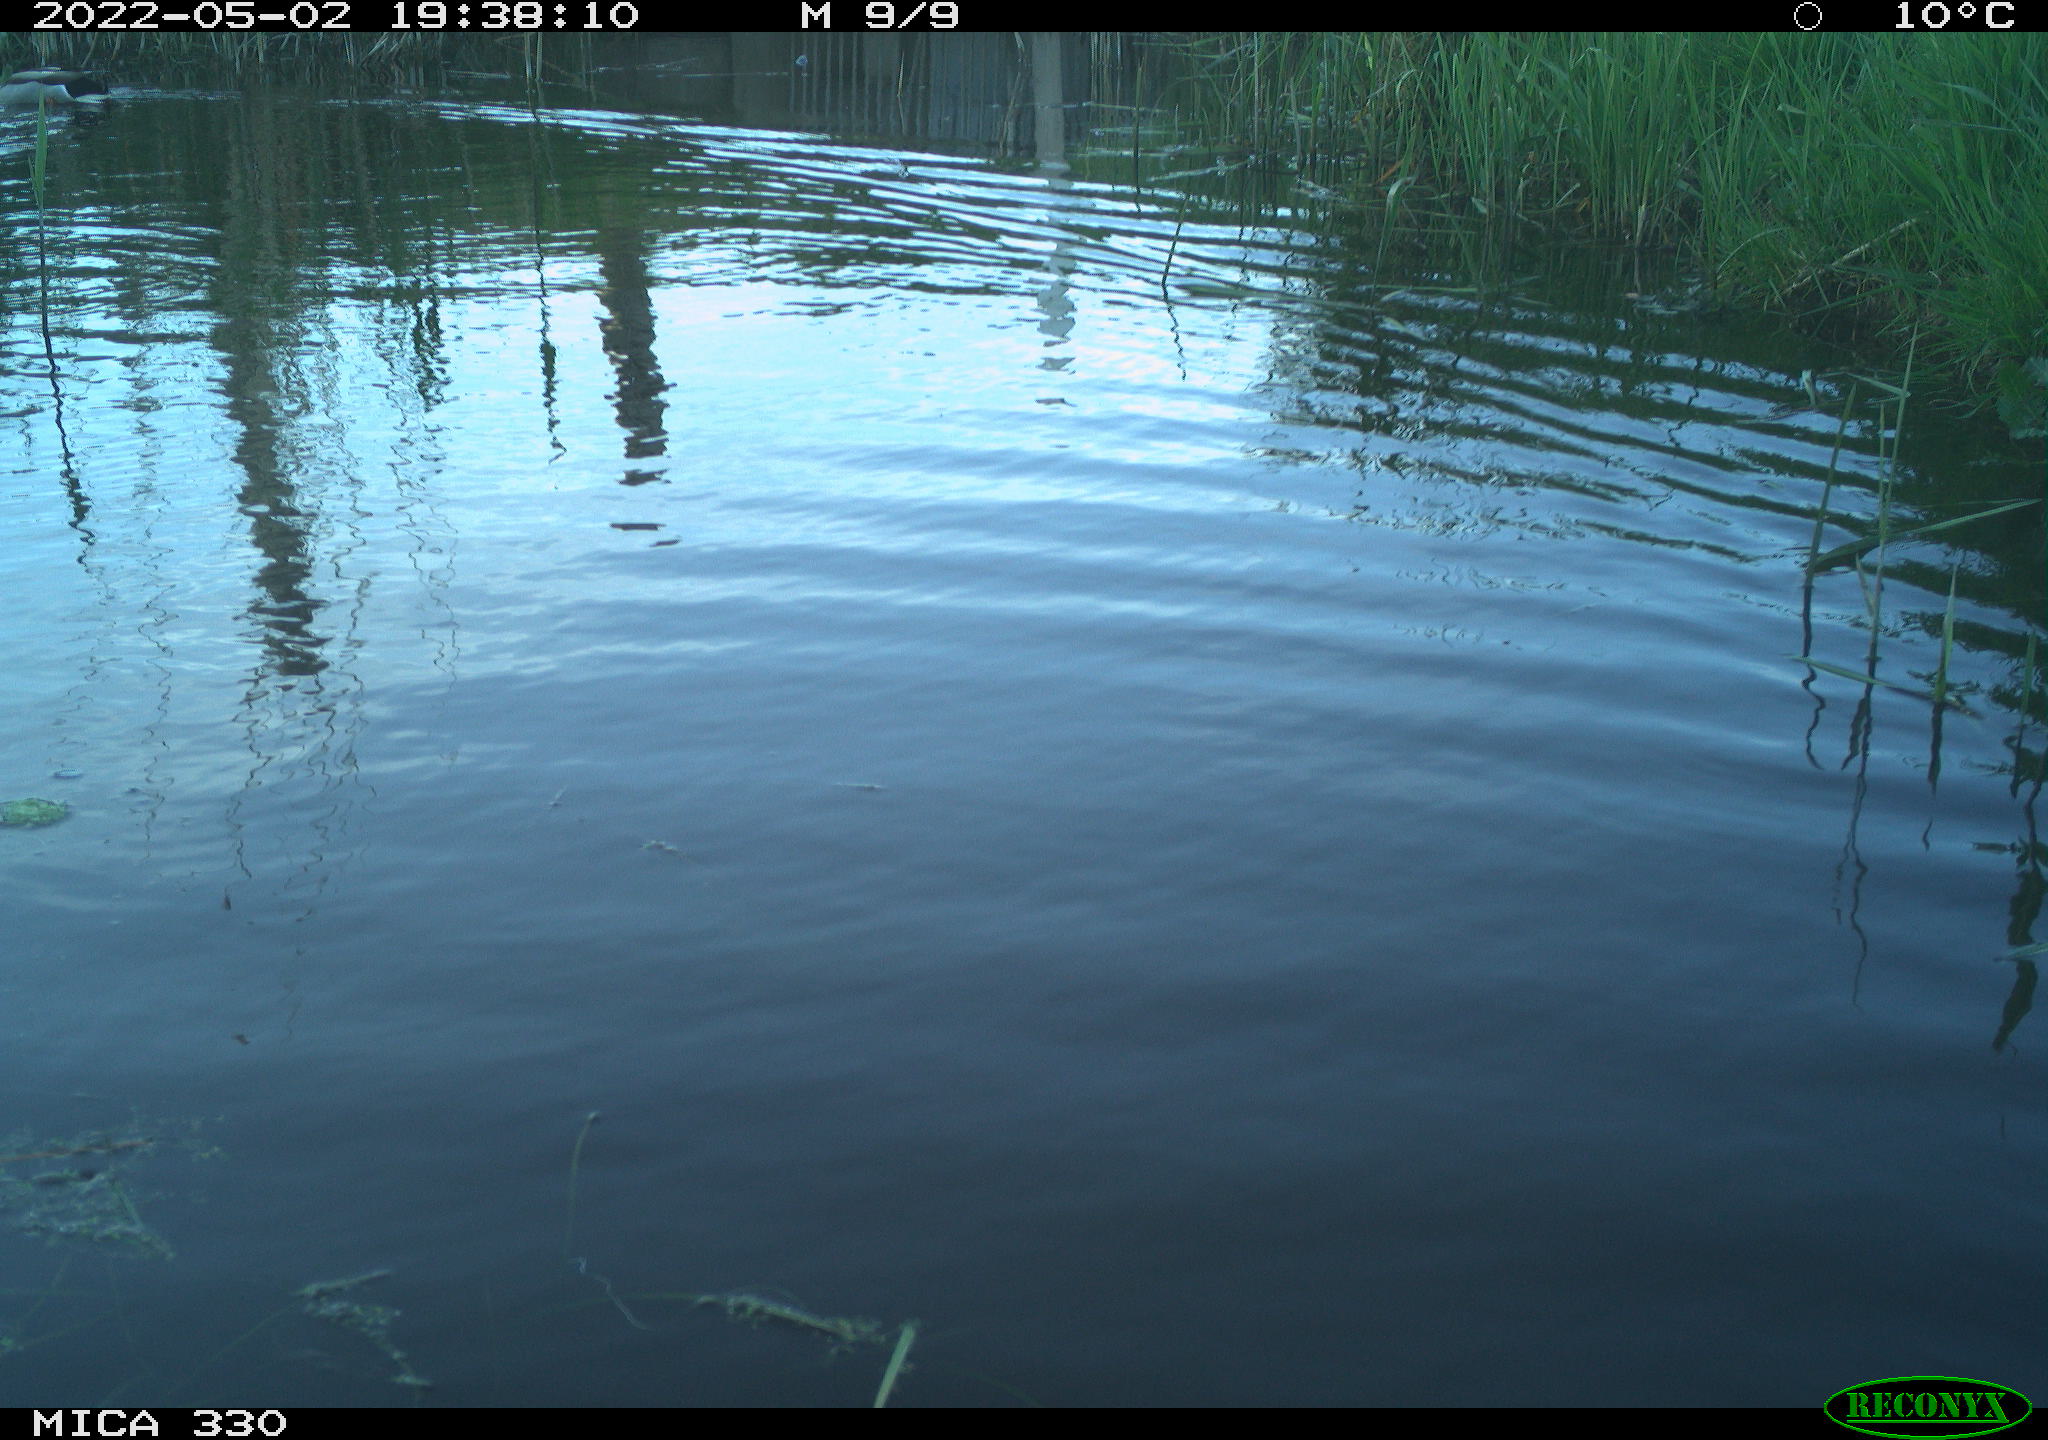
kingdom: Animalia
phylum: Chordata
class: Aves
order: Anseriformes
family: Anatidae
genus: Anas
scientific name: Anas platyrhynchos
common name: Mallard
